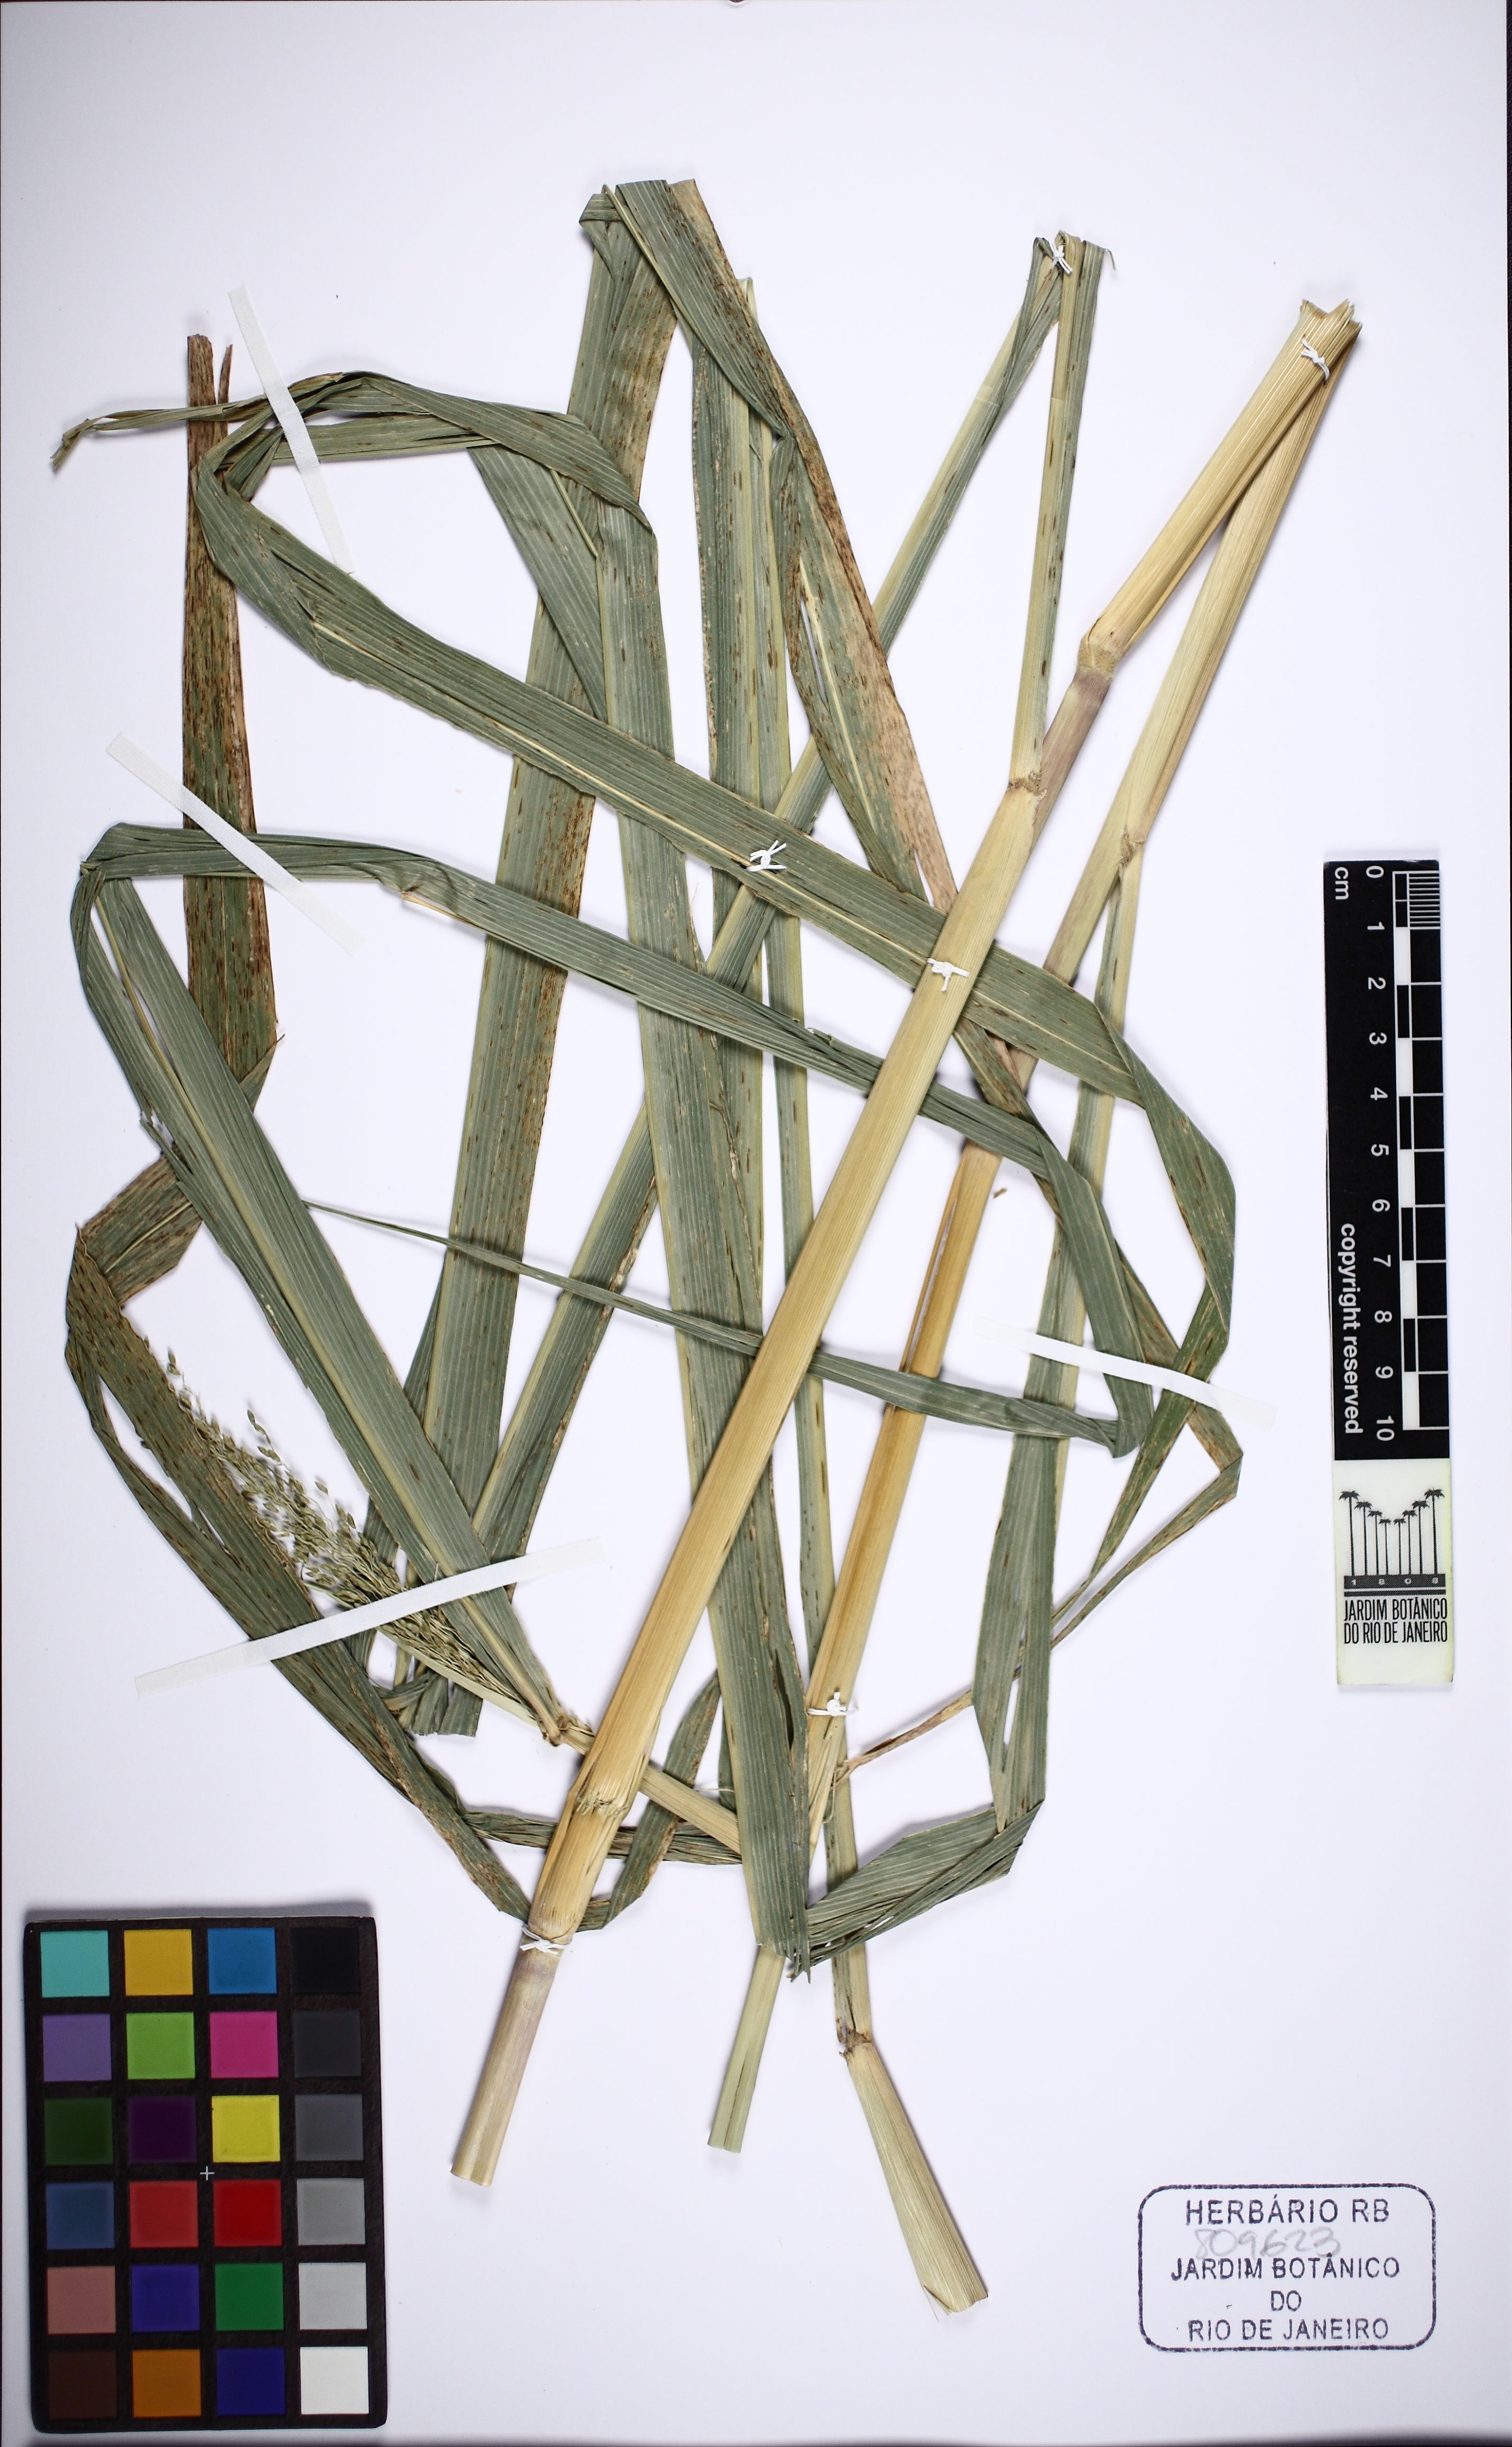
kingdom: Plantae
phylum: Tracheophyta
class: Liliopsida
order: Poales
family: Poaceae
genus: Megathyrsus
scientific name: Megathyrsus maximus
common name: Guineagrass
